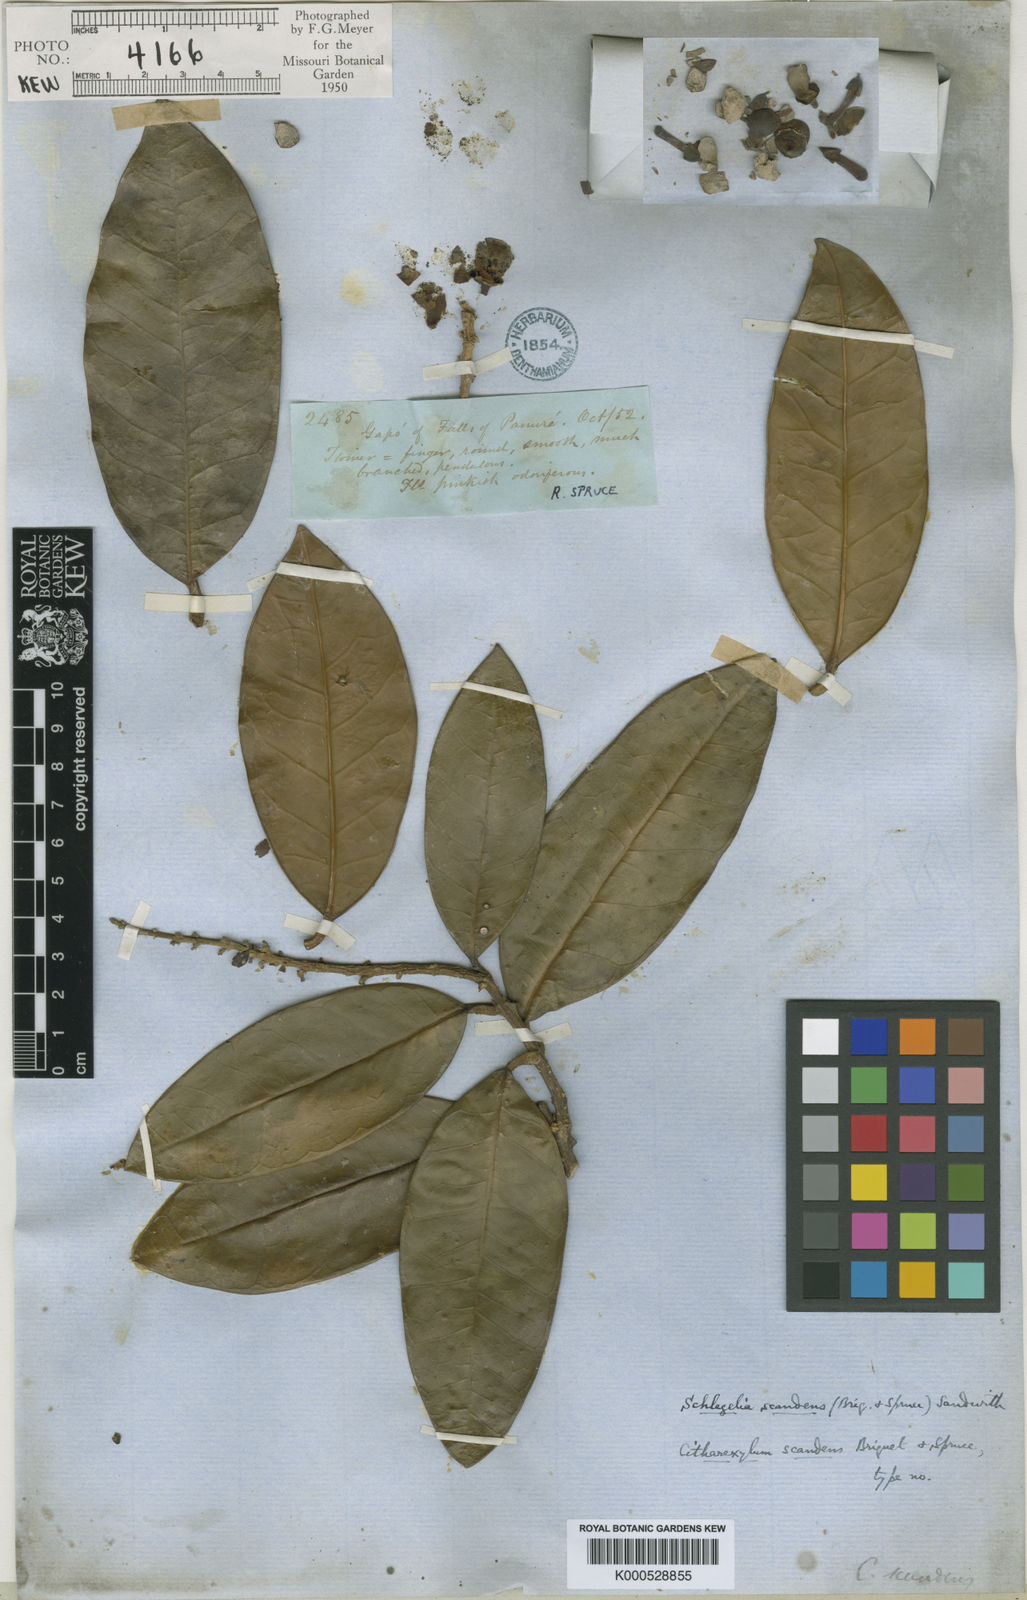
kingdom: Plantae
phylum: Tracheophyta
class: Magnoliopsida
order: Lamiales
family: Schlegeliaceae
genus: Schlegelia
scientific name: Schlegelia scandens
